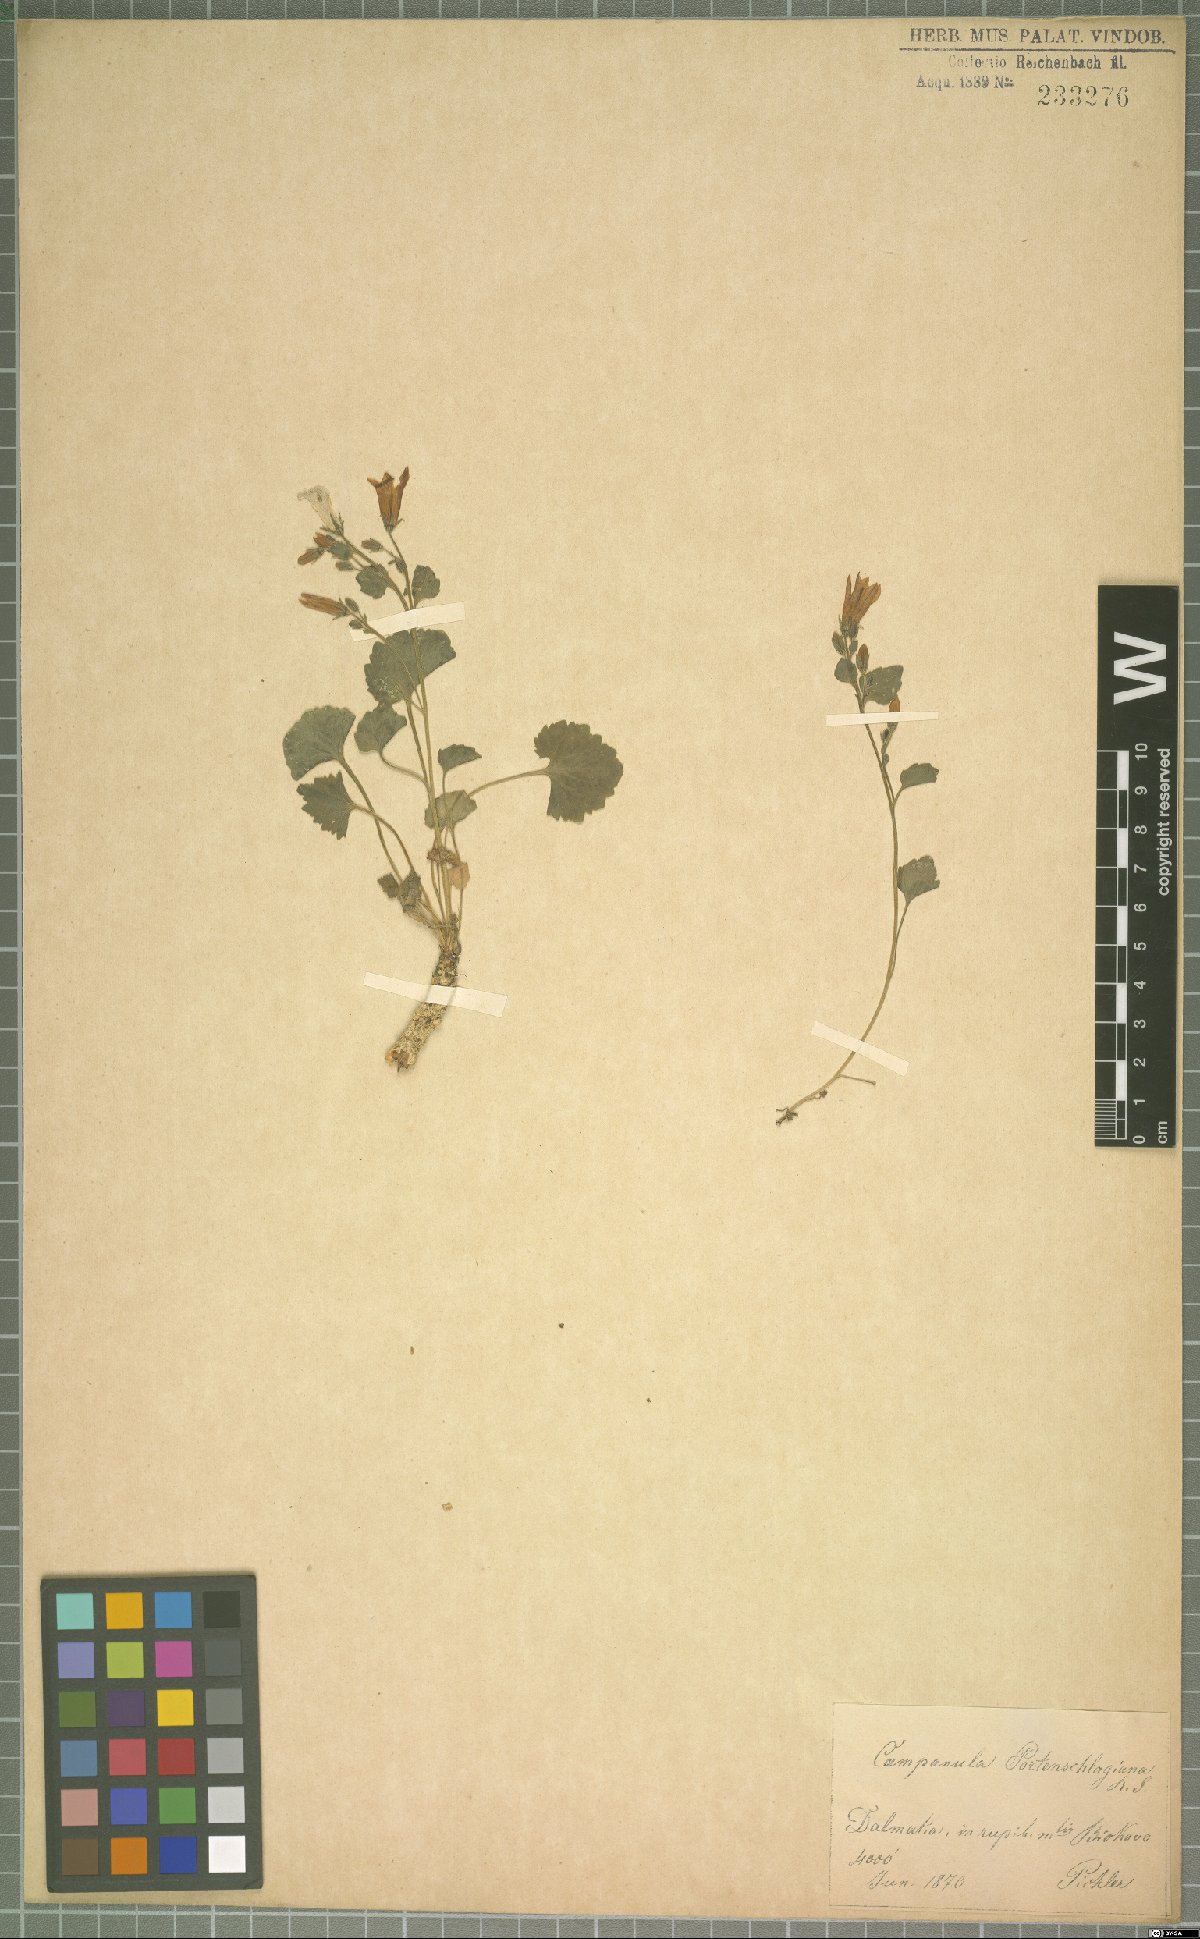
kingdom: Plantae
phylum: Tracheophyta
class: Magnoliopsida
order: Asterales
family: Campanulaceae
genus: Campanula
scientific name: Campanula portenschlagiana
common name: Adria bellflower
